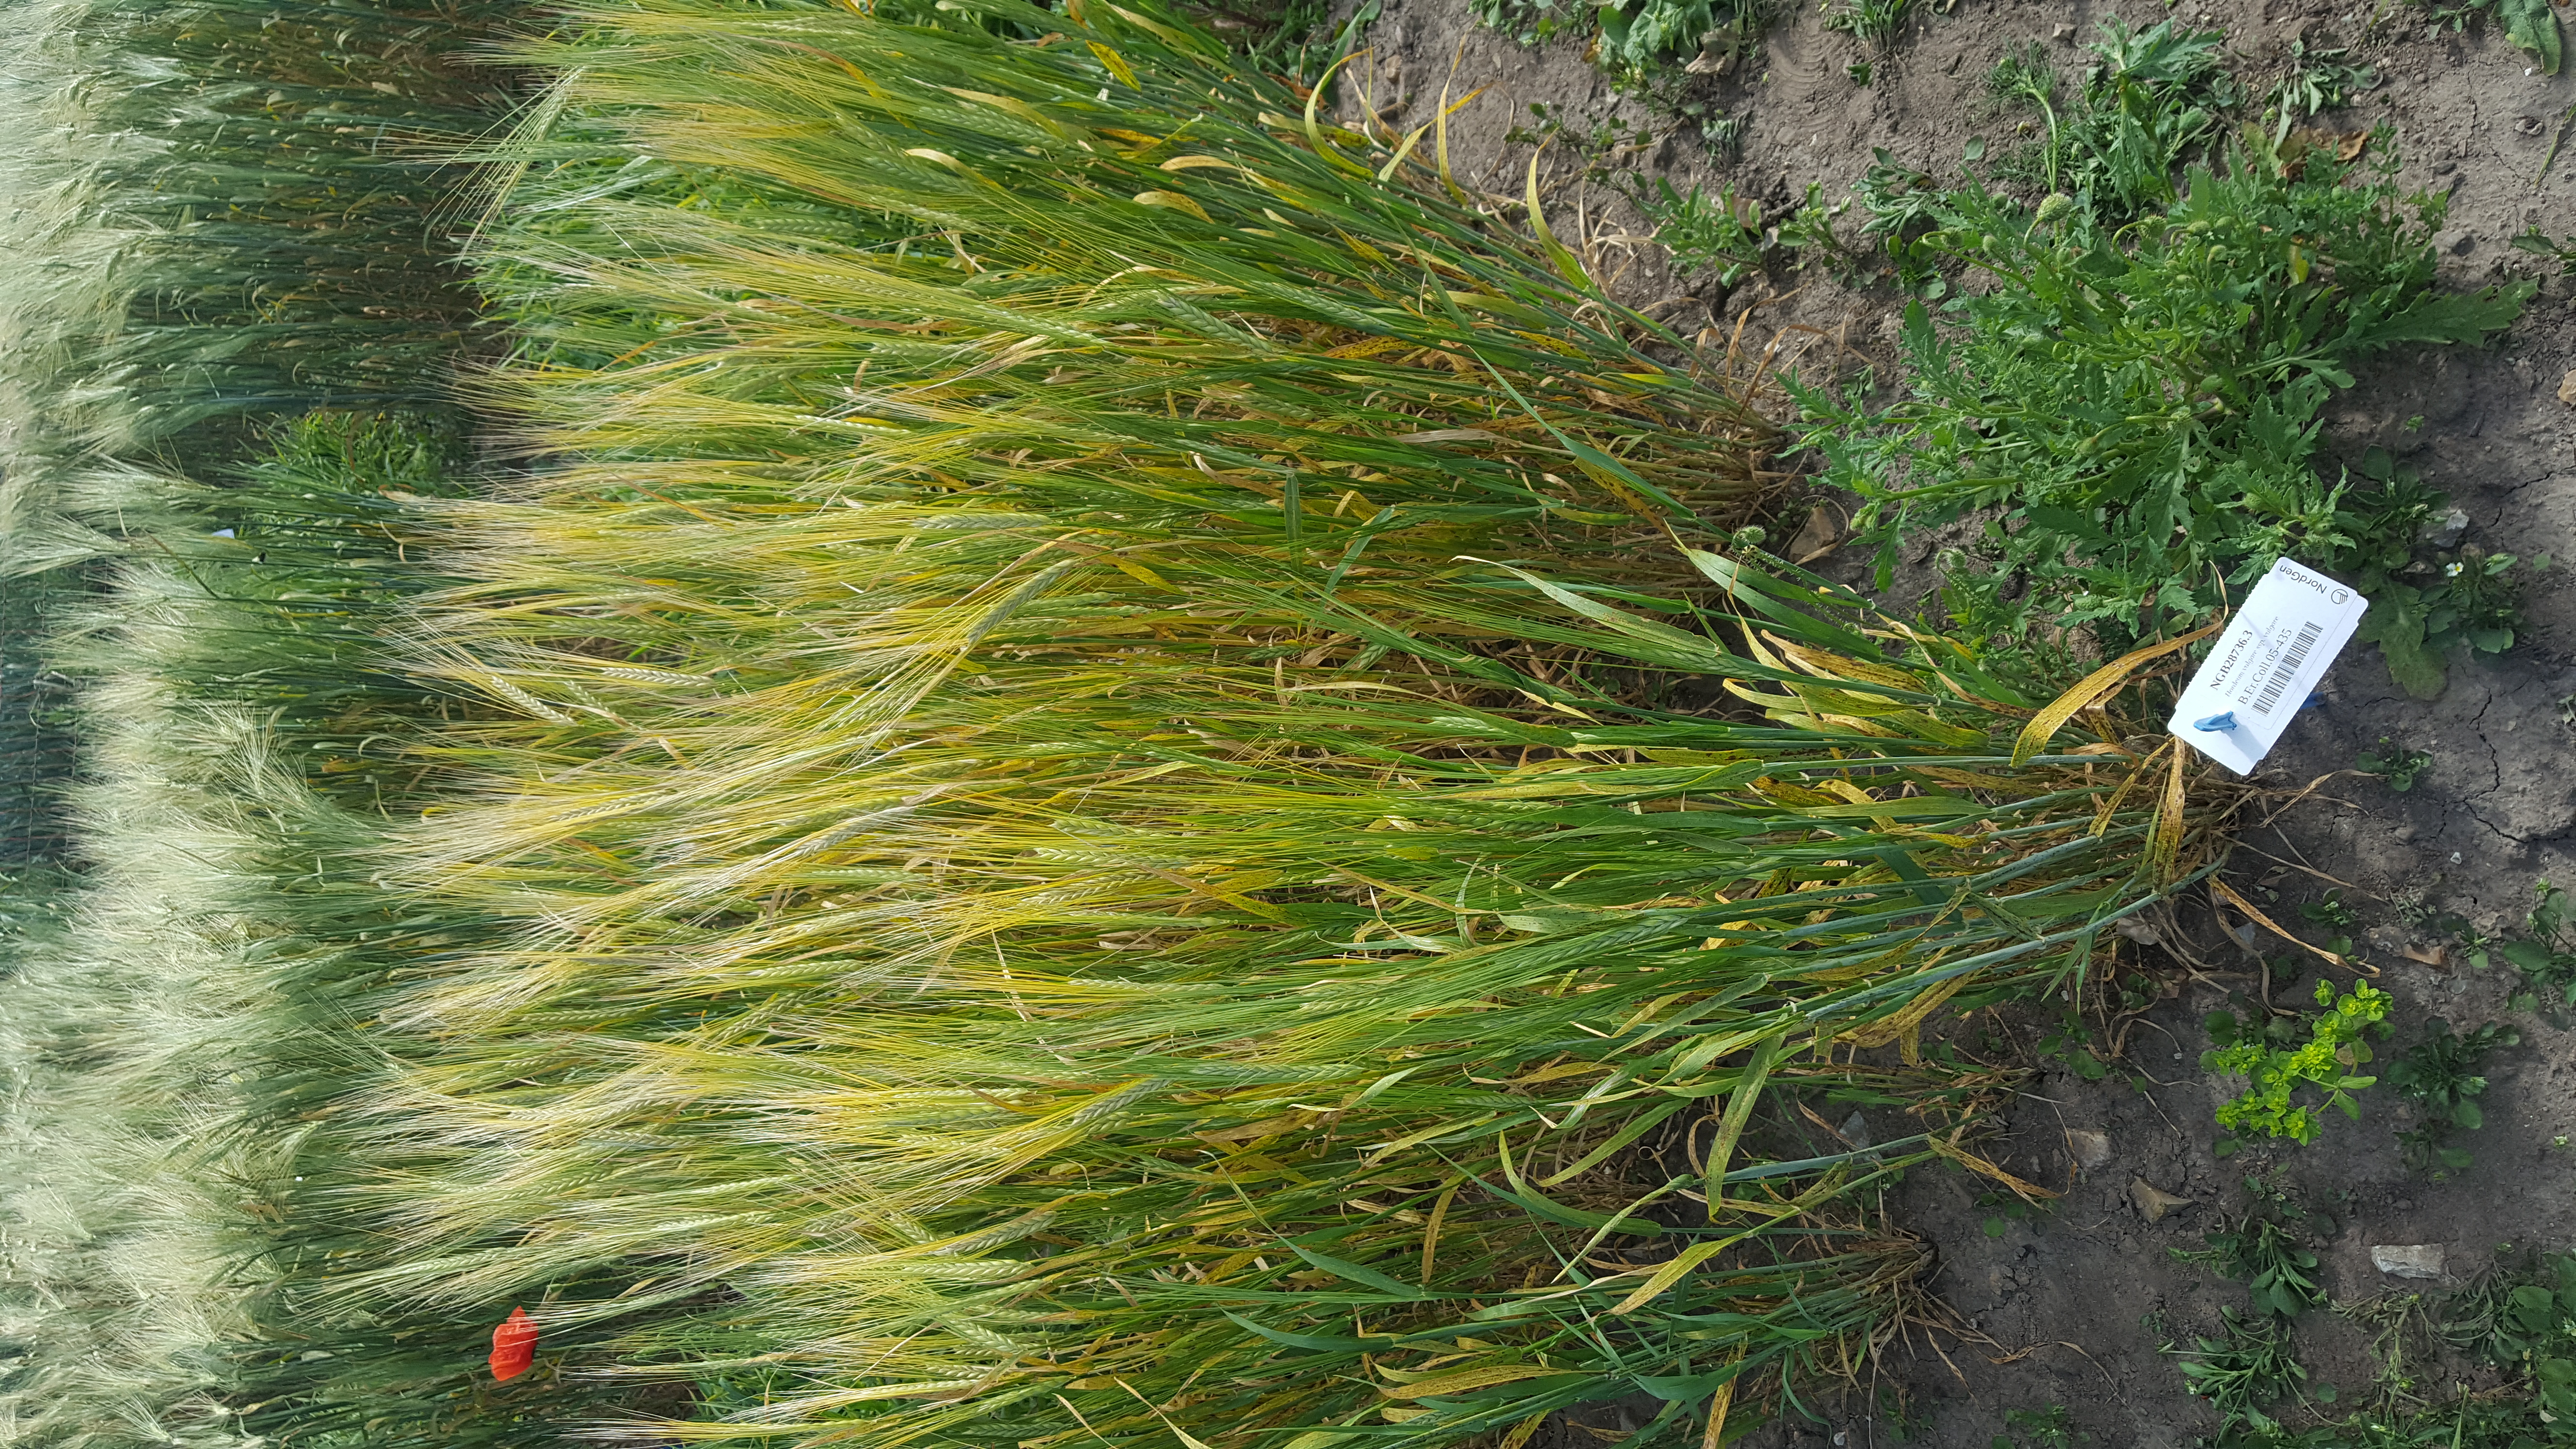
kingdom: Plantae
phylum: Tracheophyta
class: Liliopsida
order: Poales
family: Poaceae
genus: Hordeum
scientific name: Hordeum vulgare
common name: Common barley
